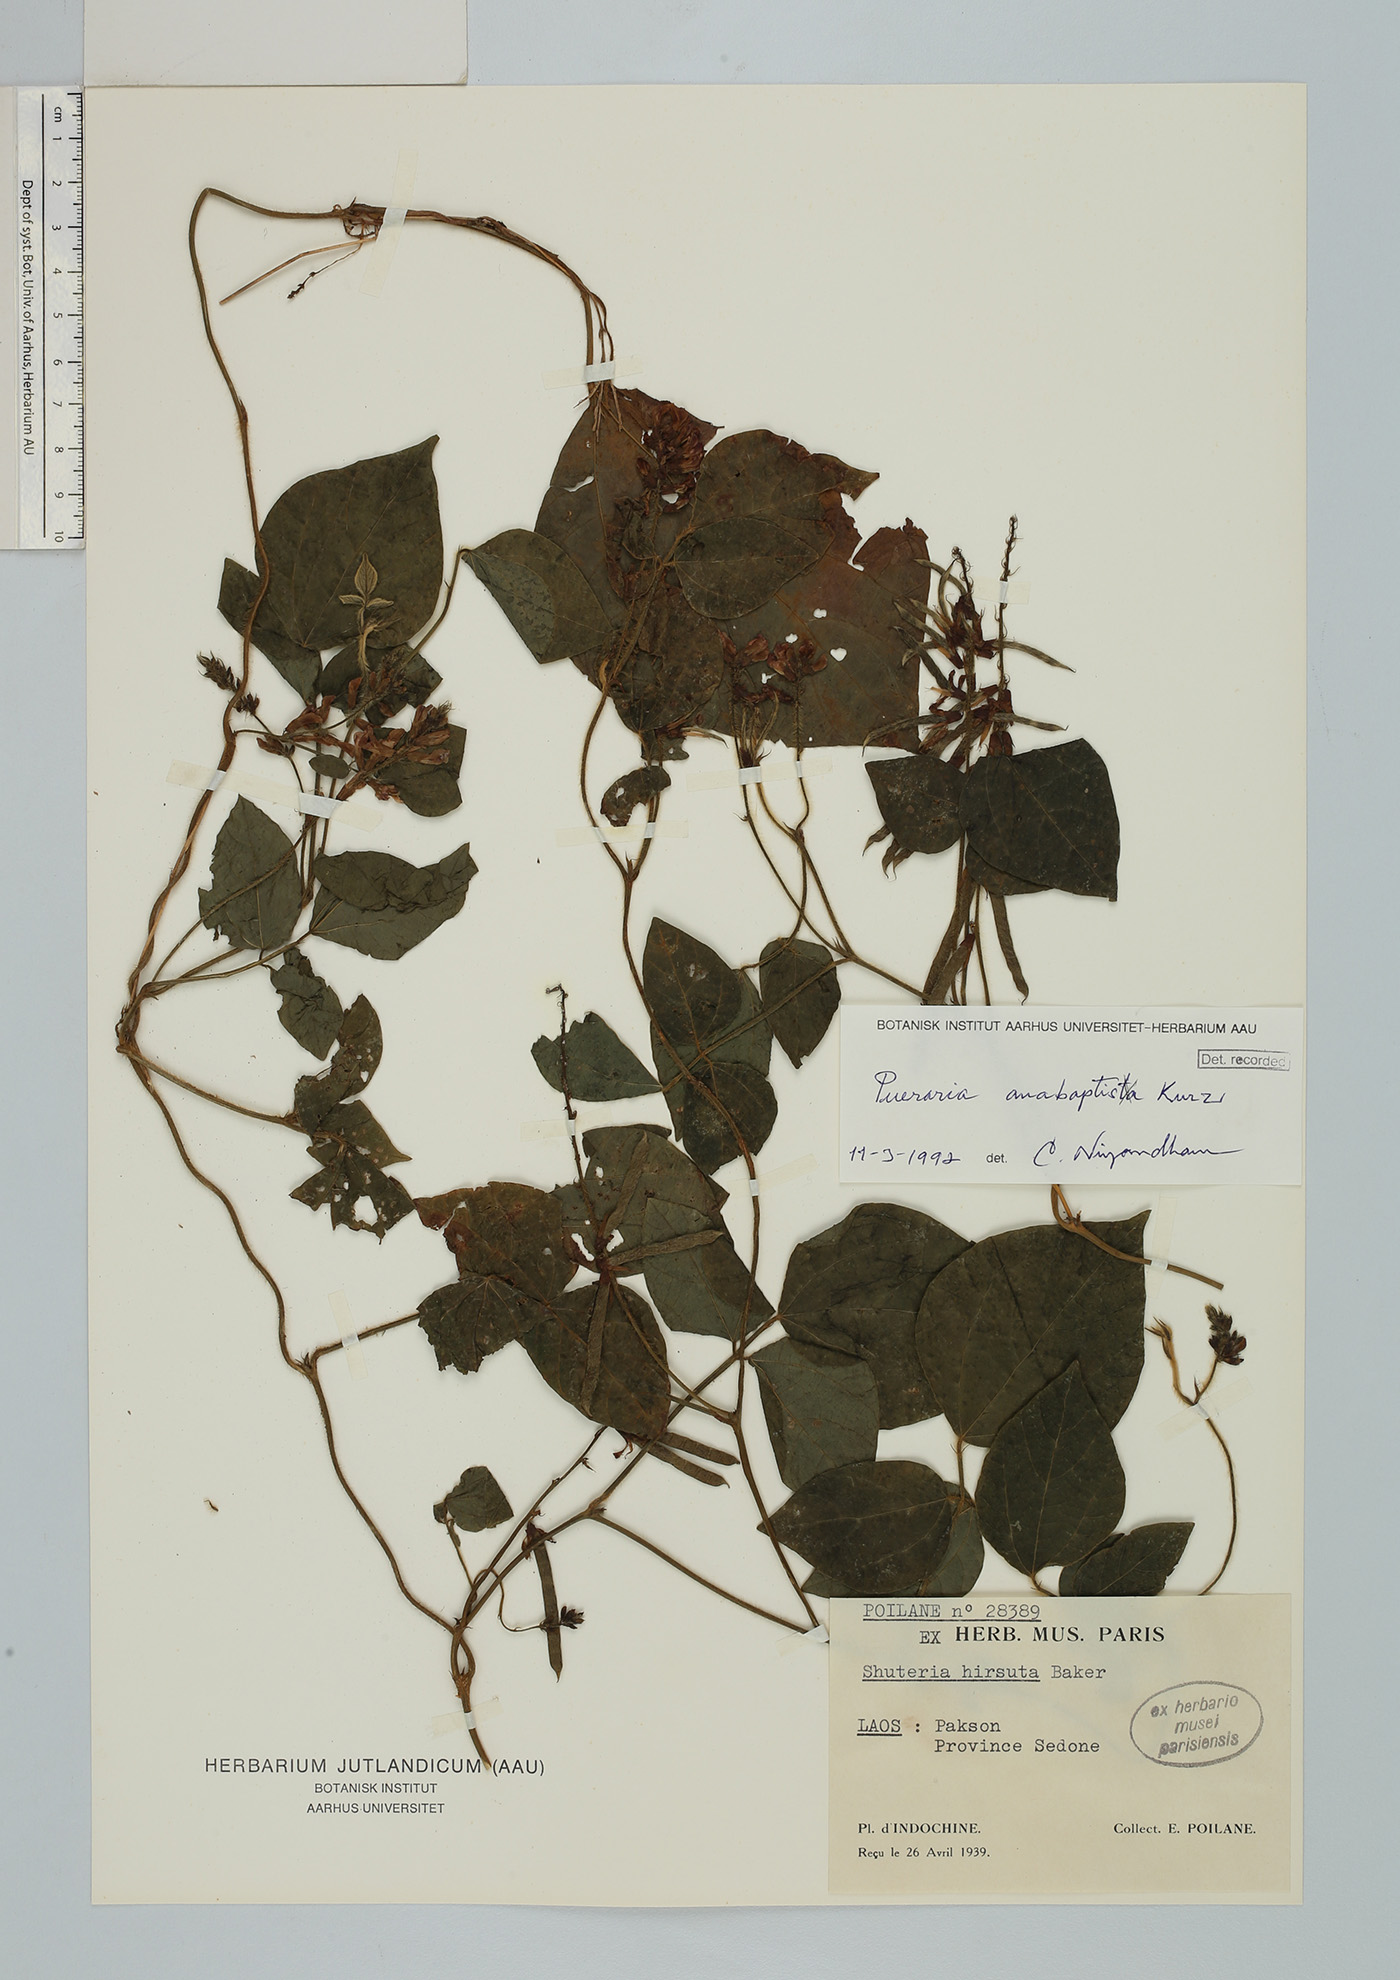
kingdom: Plantae
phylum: Tracheophyta
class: Magnoliopsida
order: Fabales
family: Fabaceae
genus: Harashuteria
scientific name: Harashuteria hirsuta
